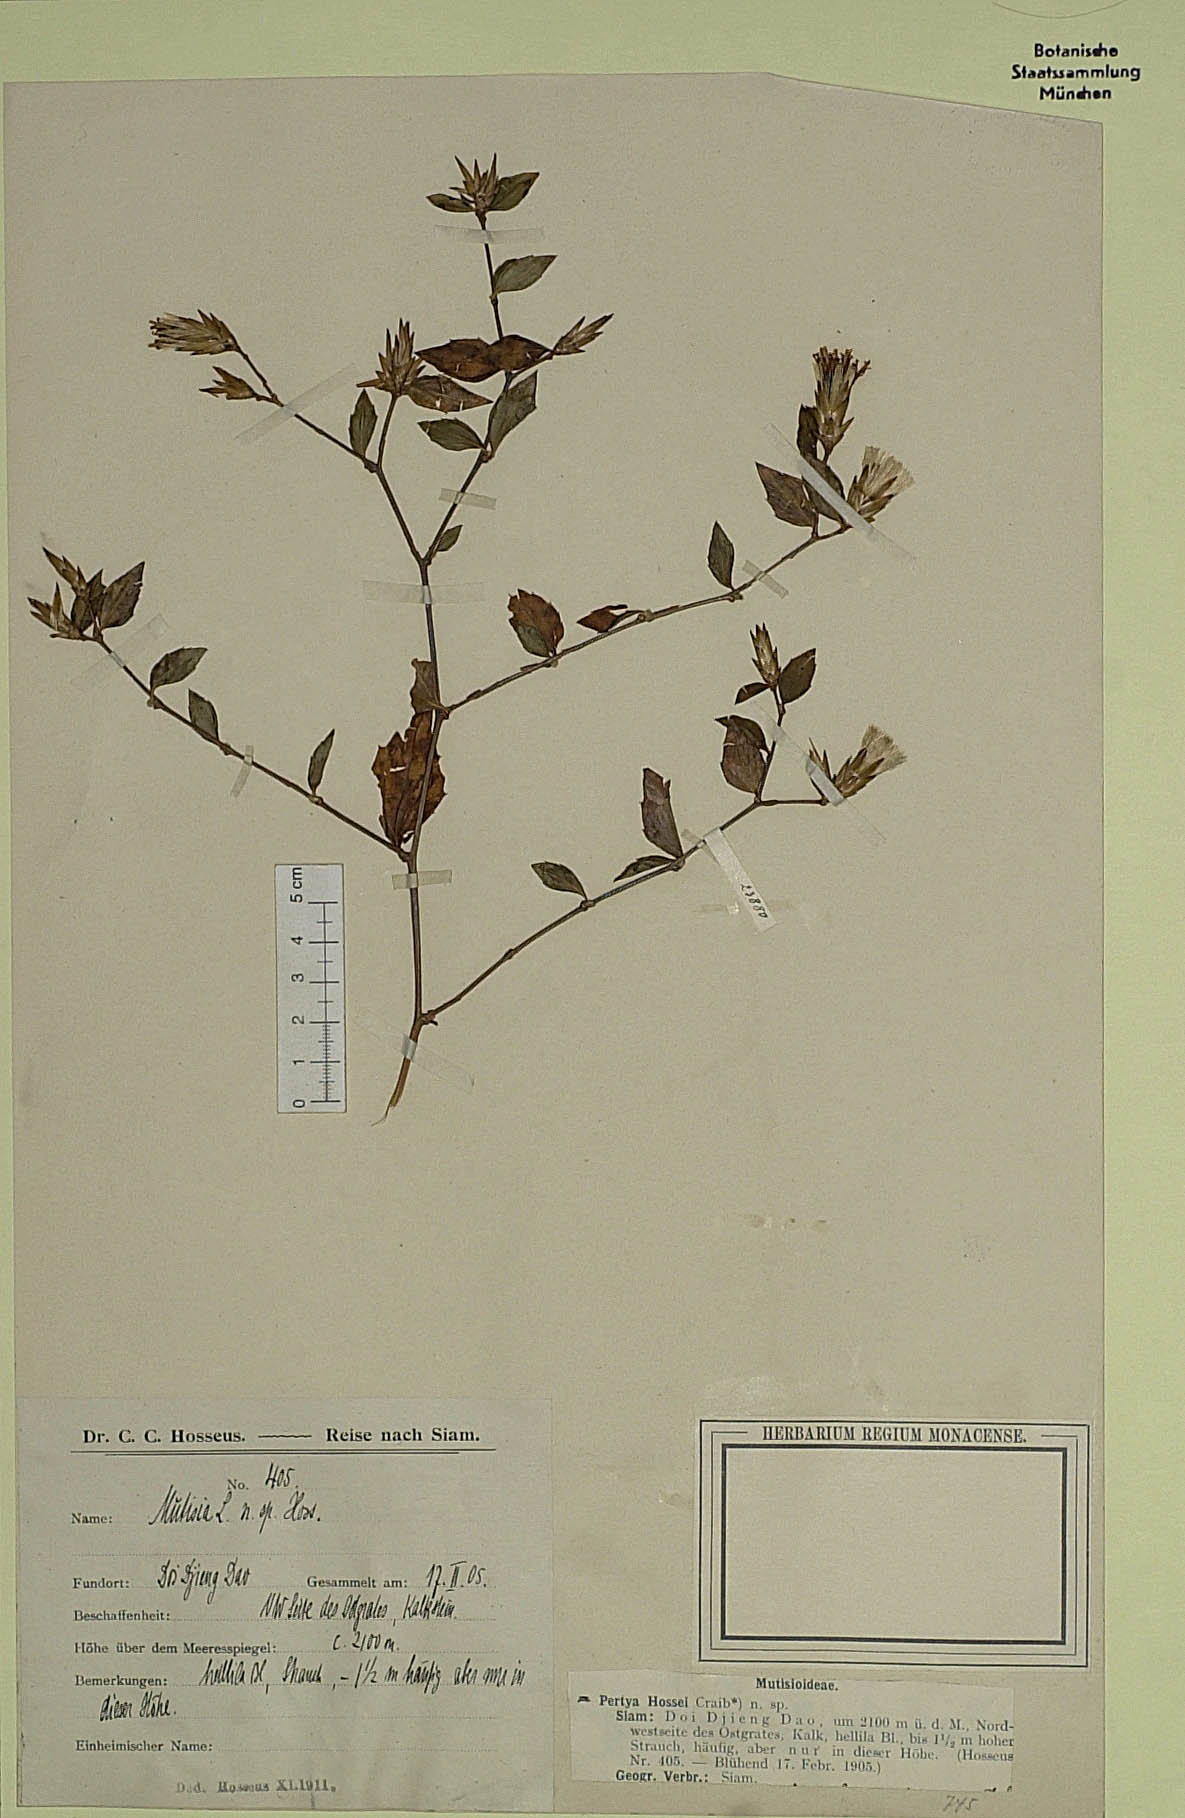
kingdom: Plantae
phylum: Tracheophyta
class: Magnoliopsida
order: Asterales
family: Asteraceae
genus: Pertya
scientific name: Pertya hossei
